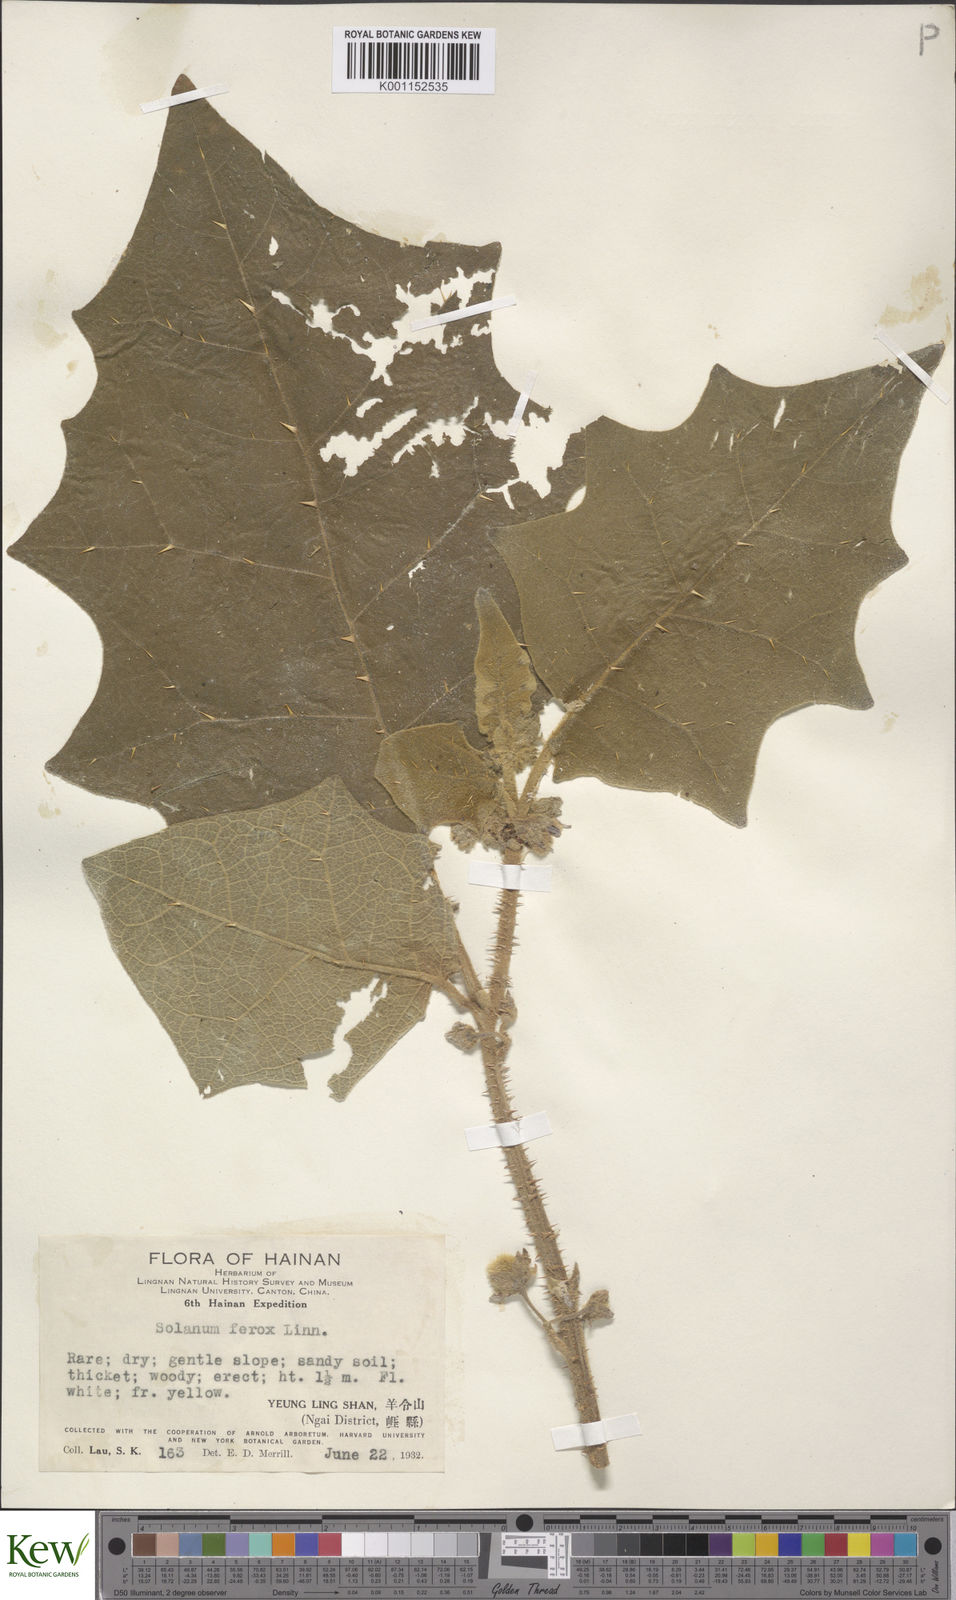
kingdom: Plantae
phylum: Tracheophyta
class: Magnoliopsida
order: Solanales
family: Solanaceae
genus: Solanum
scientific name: Solanum lasiocarpum
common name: Indian nightshade
